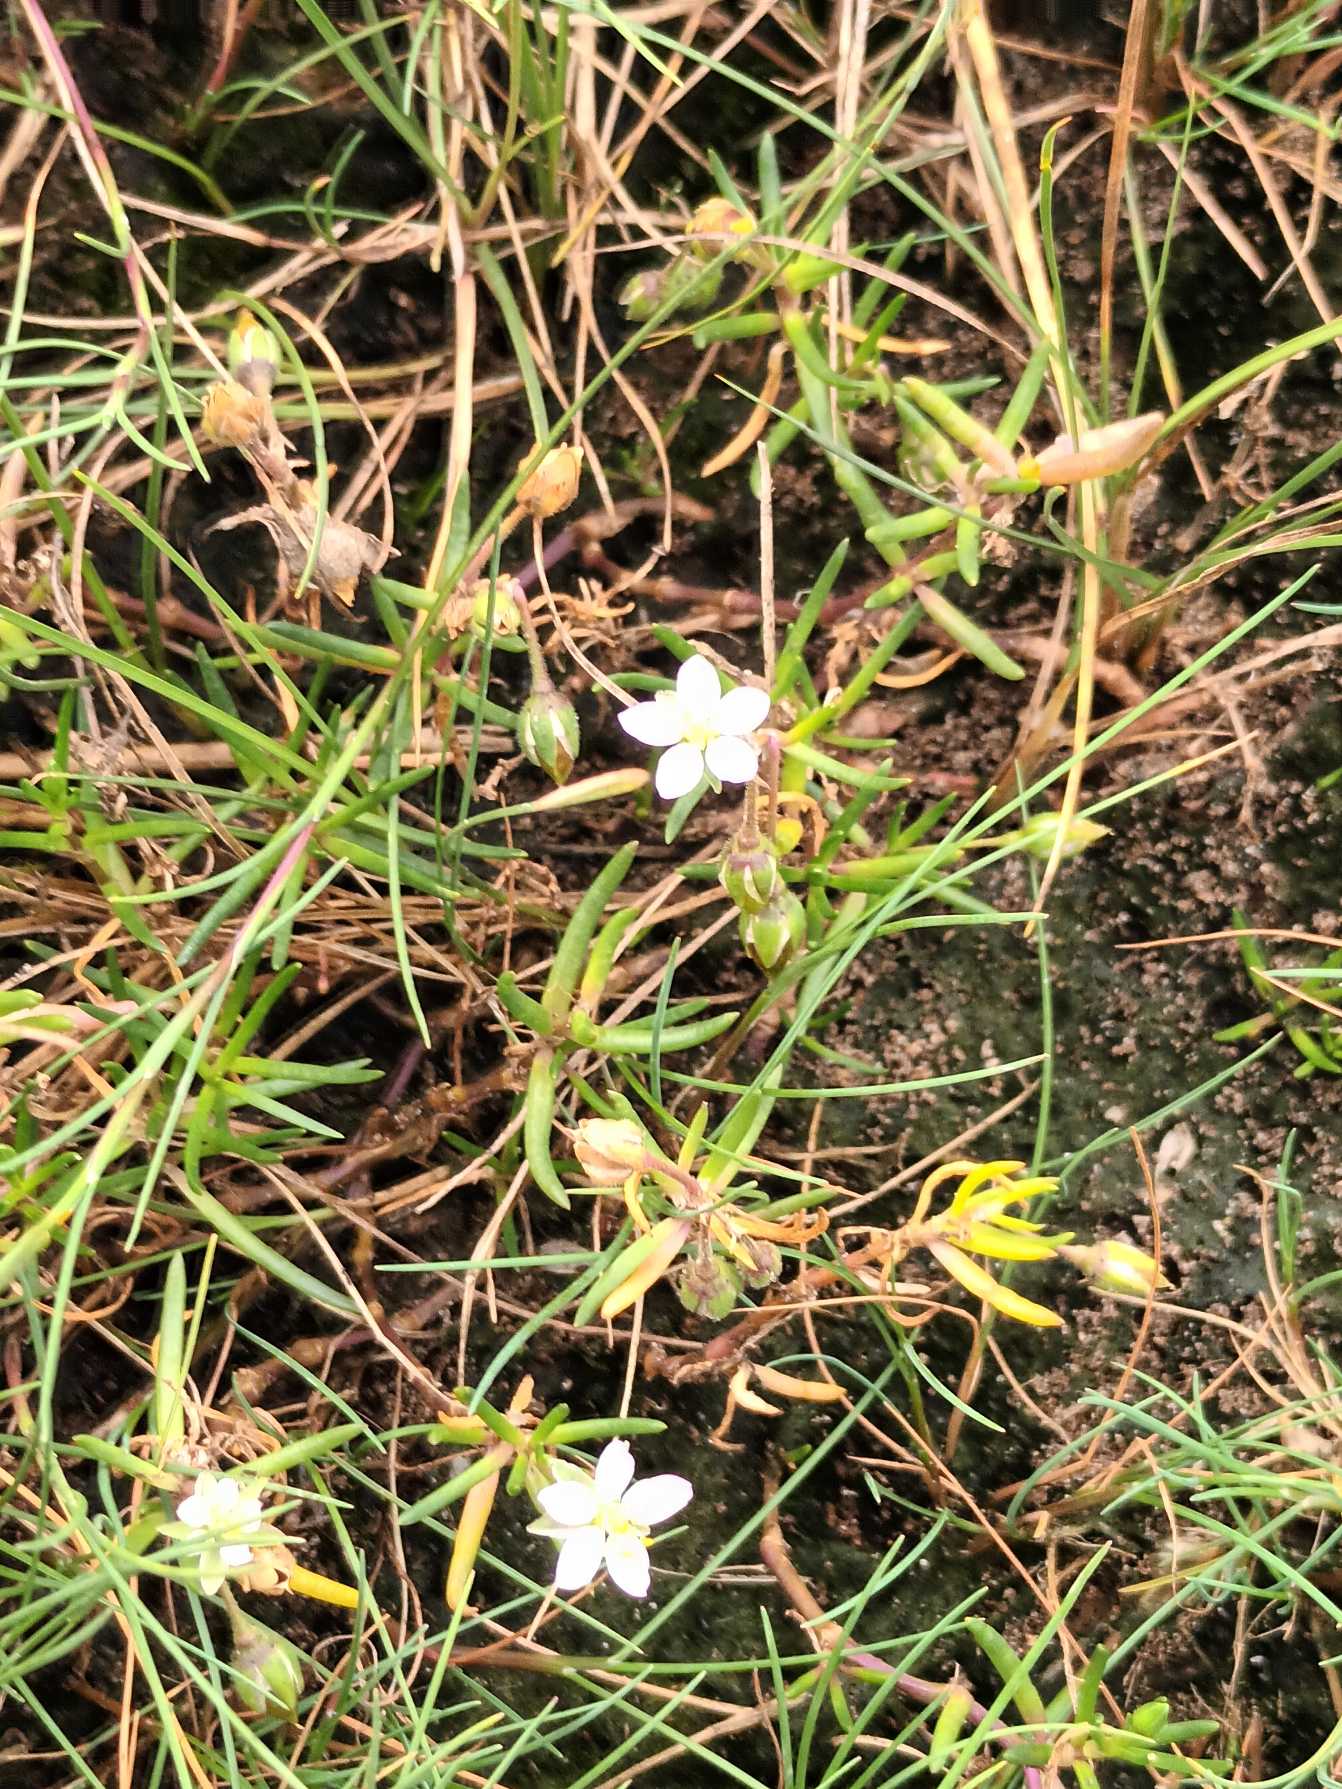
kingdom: Plantae
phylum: Tracheophyta
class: Magnoliopsida
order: Caryophyllales
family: Caryophyllaceae
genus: Spergularia
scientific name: Spergularia marina
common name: Kødet hindeknæ
